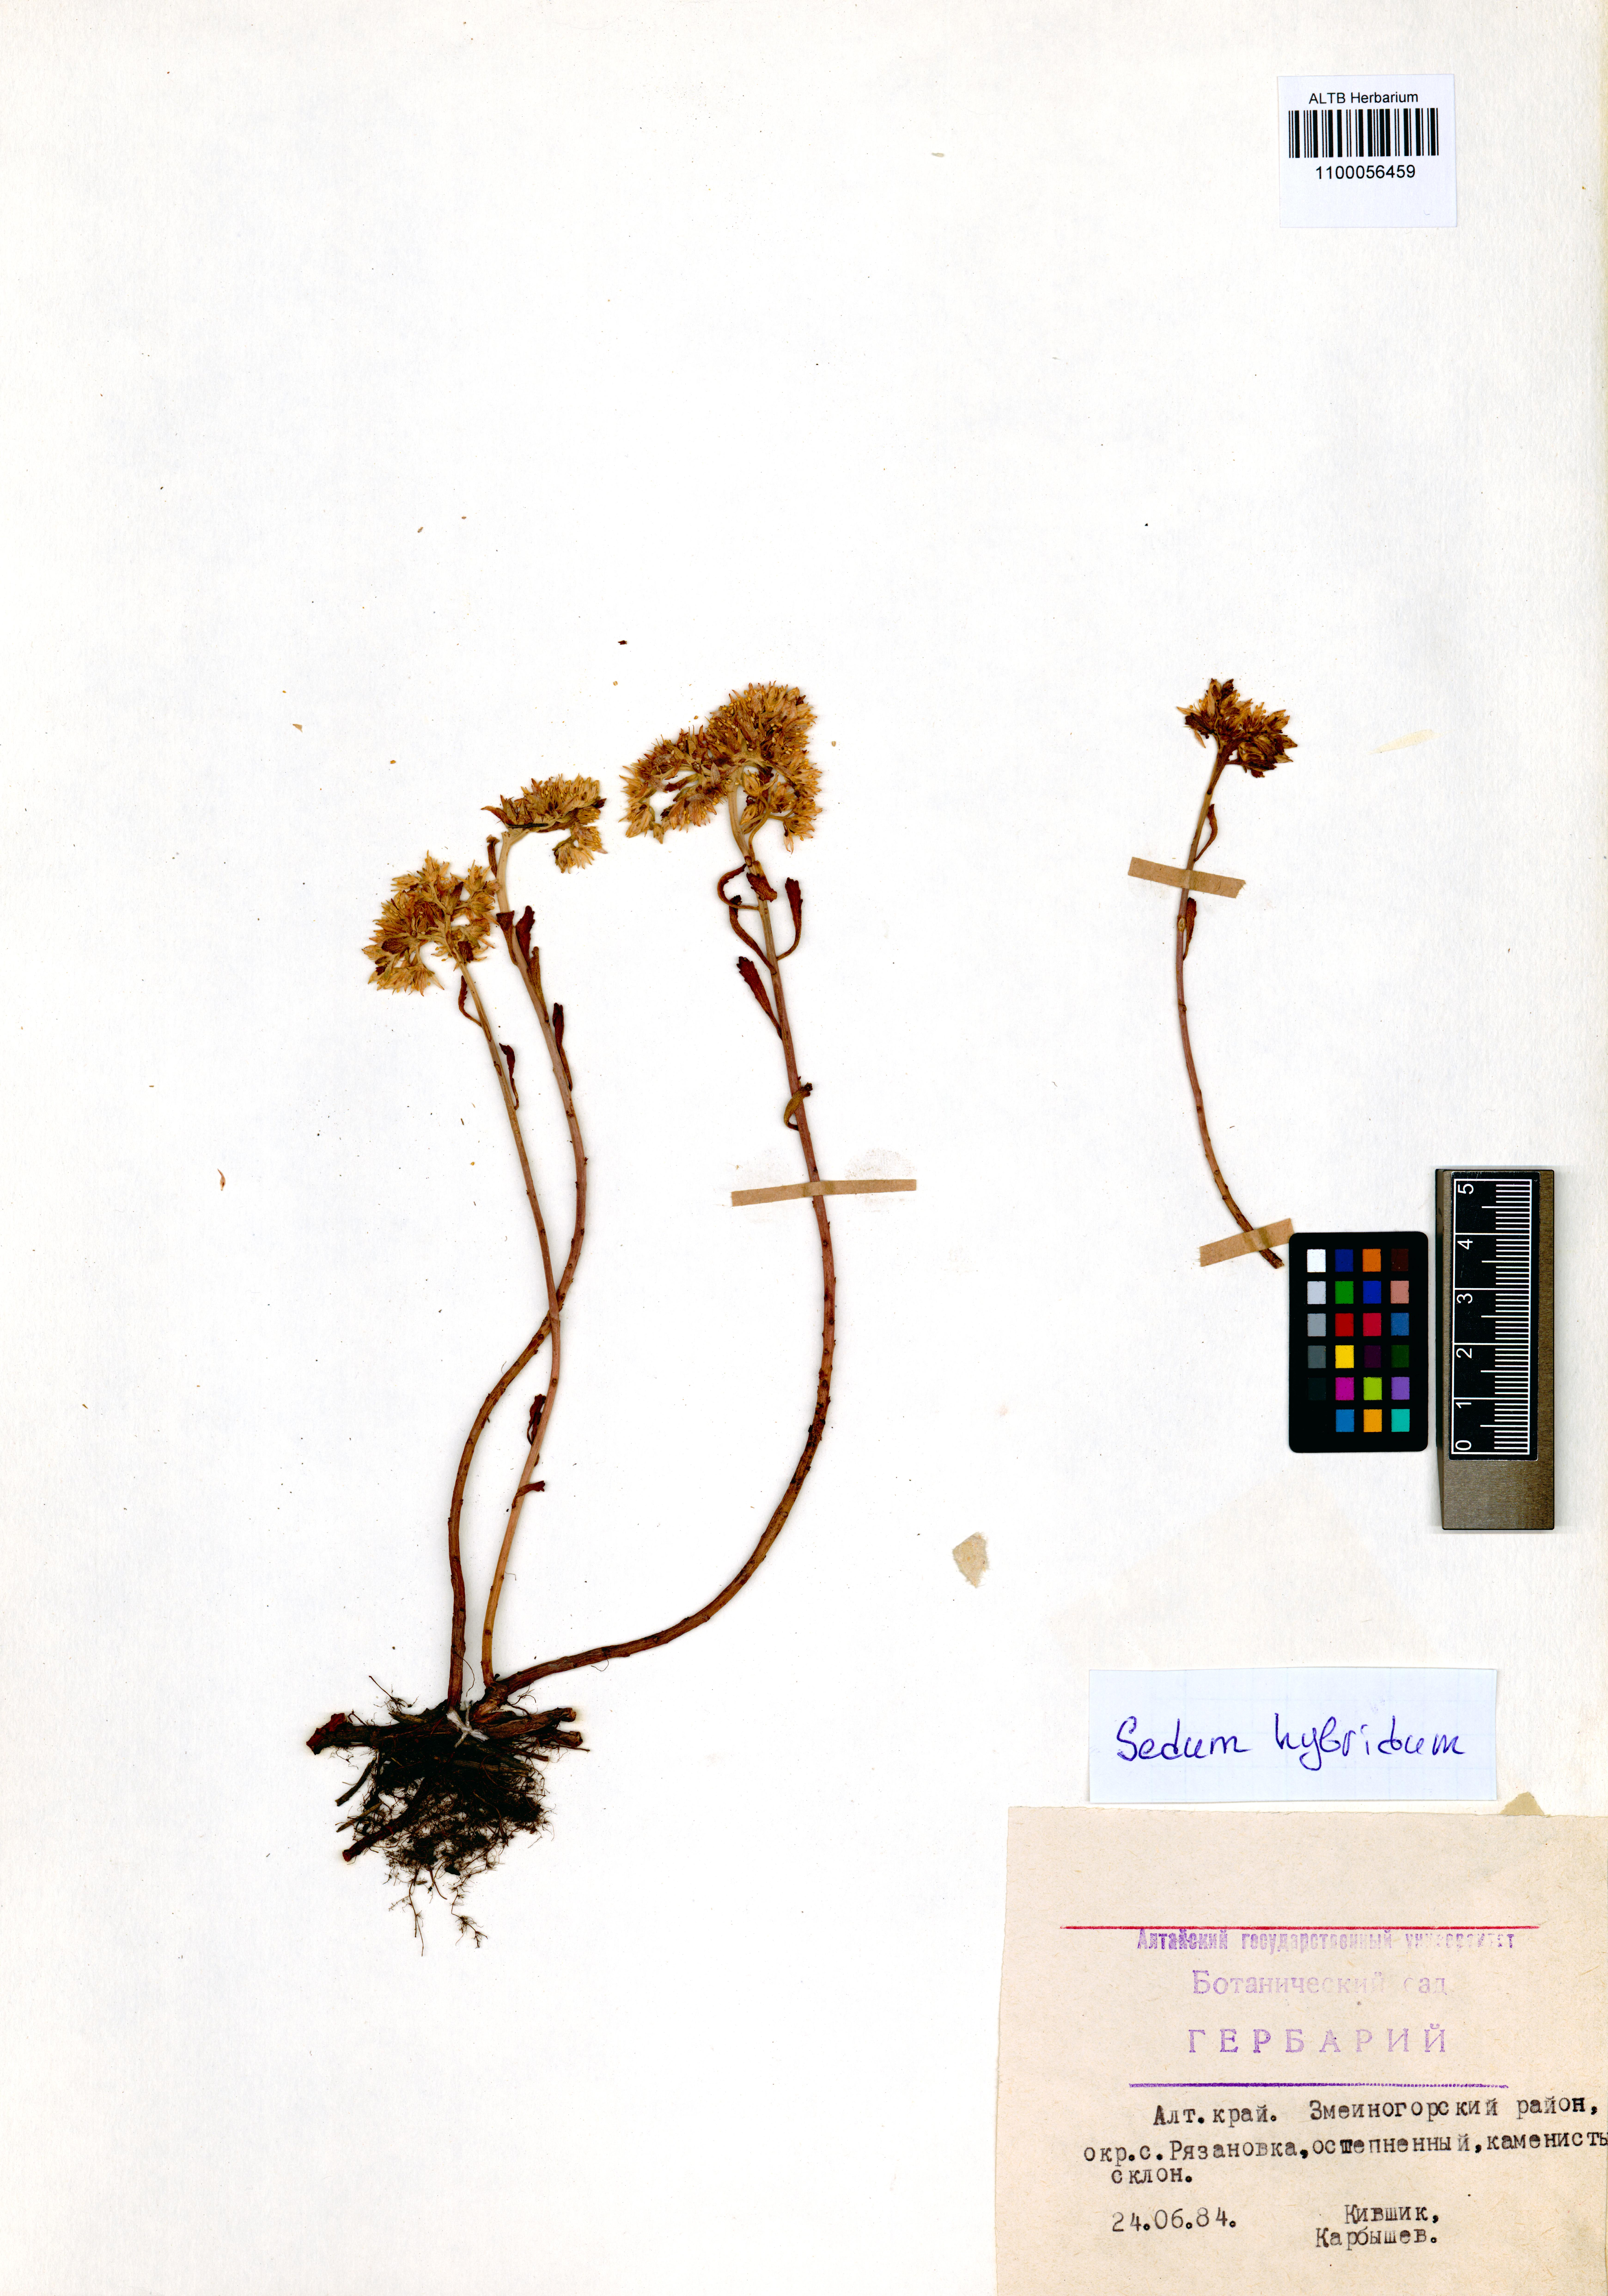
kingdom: Plantae
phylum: Tracheophyta
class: Magnoliopsida
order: Saxifragales
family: Crassulaceae
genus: Phedimus
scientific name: Phedimus hybridus
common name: Hybrid stonecrop
